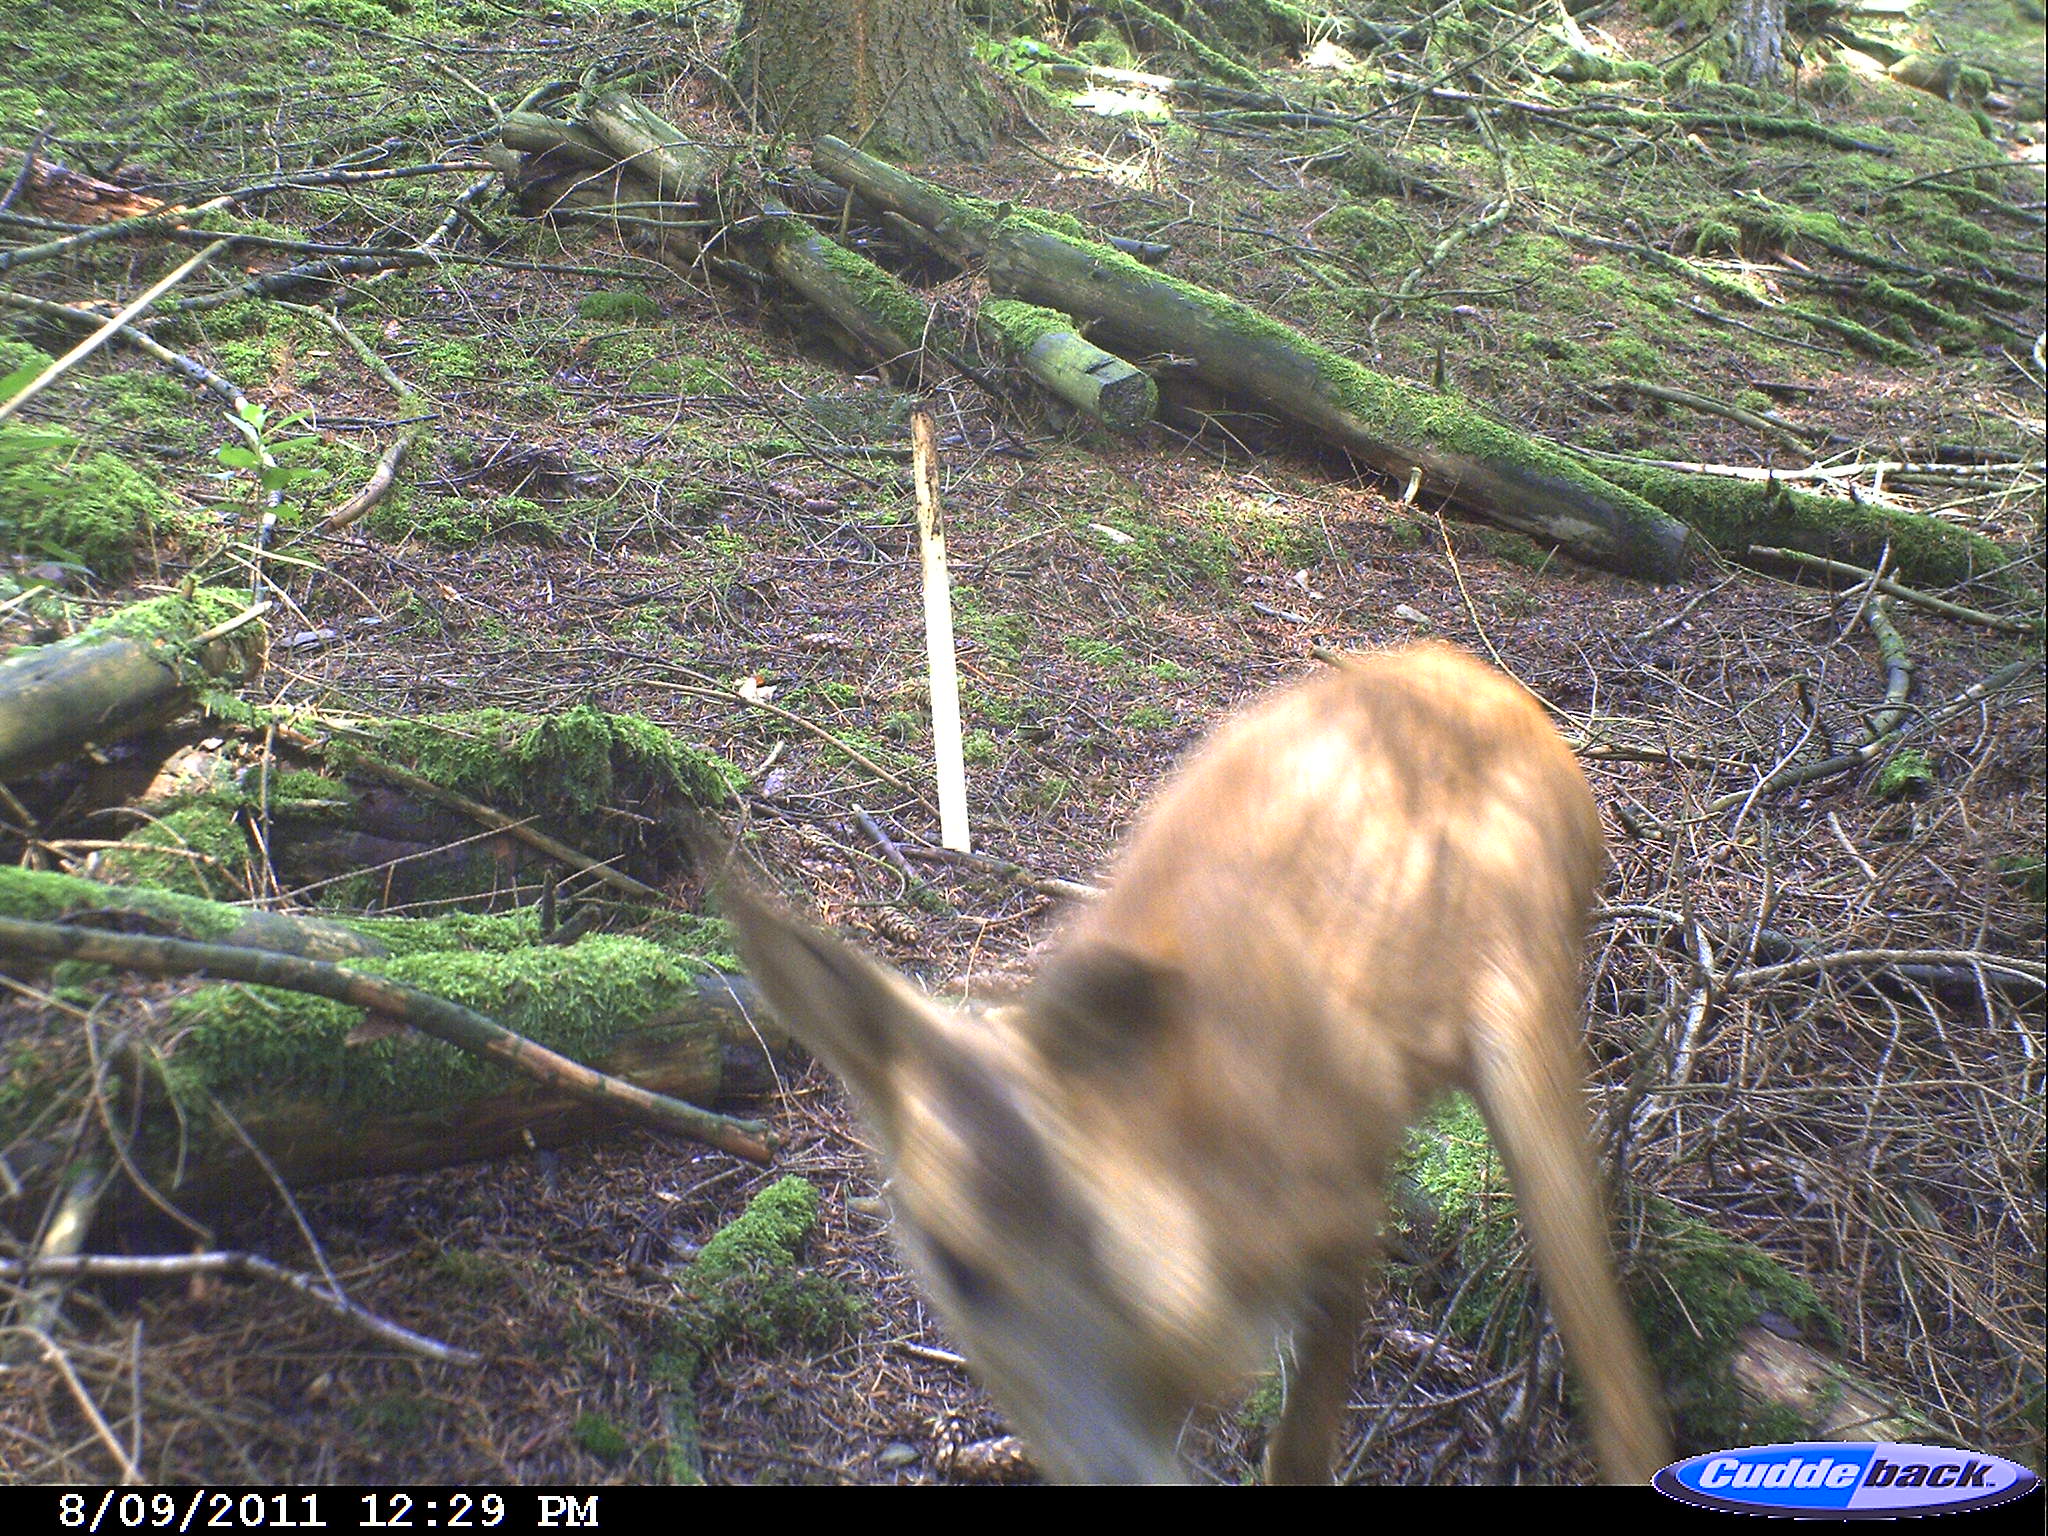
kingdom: Animalia
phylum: Chordata
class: Mammalia
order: Artiodactyla
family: Cervidae
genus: Capreolus
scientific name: Capreolus capreolus
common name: Western roe deer
